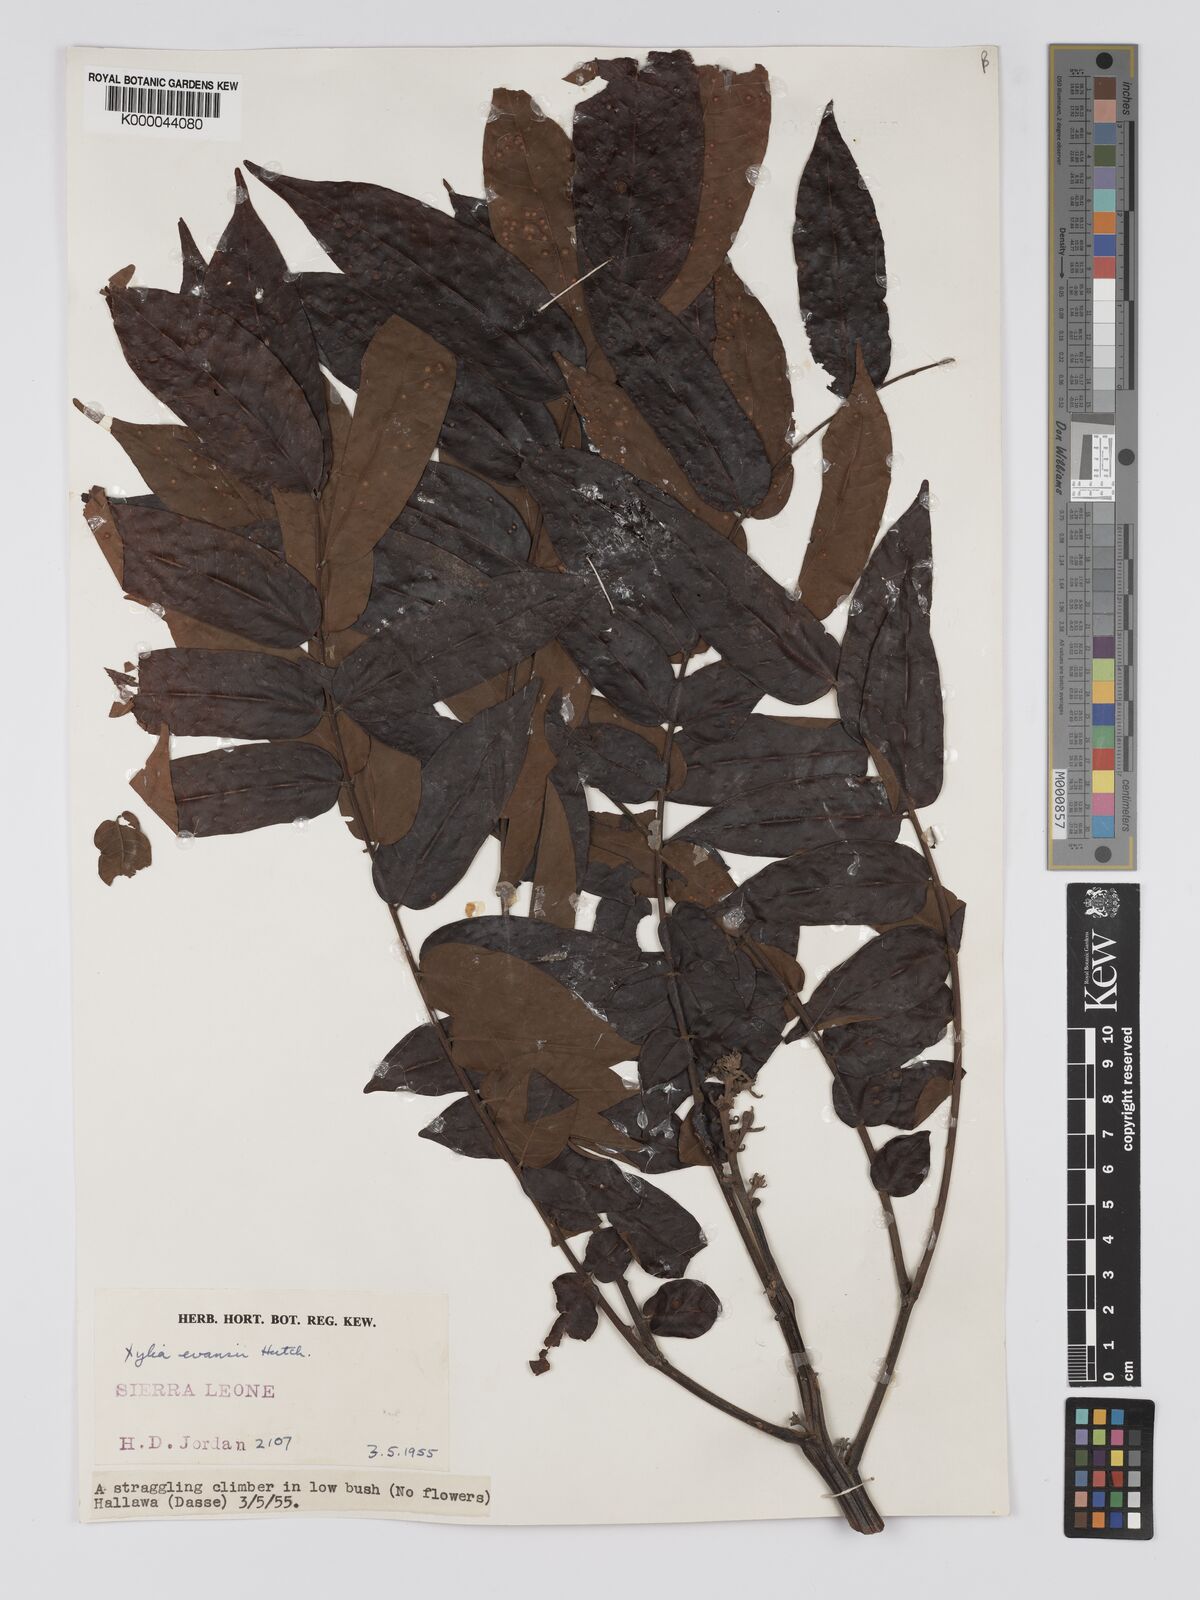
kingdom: Plantae
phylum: Tracheophyta
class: Magnoliopsida
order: Fabales
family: Fabaceae
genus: Xylia
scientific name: Xylia evansii
